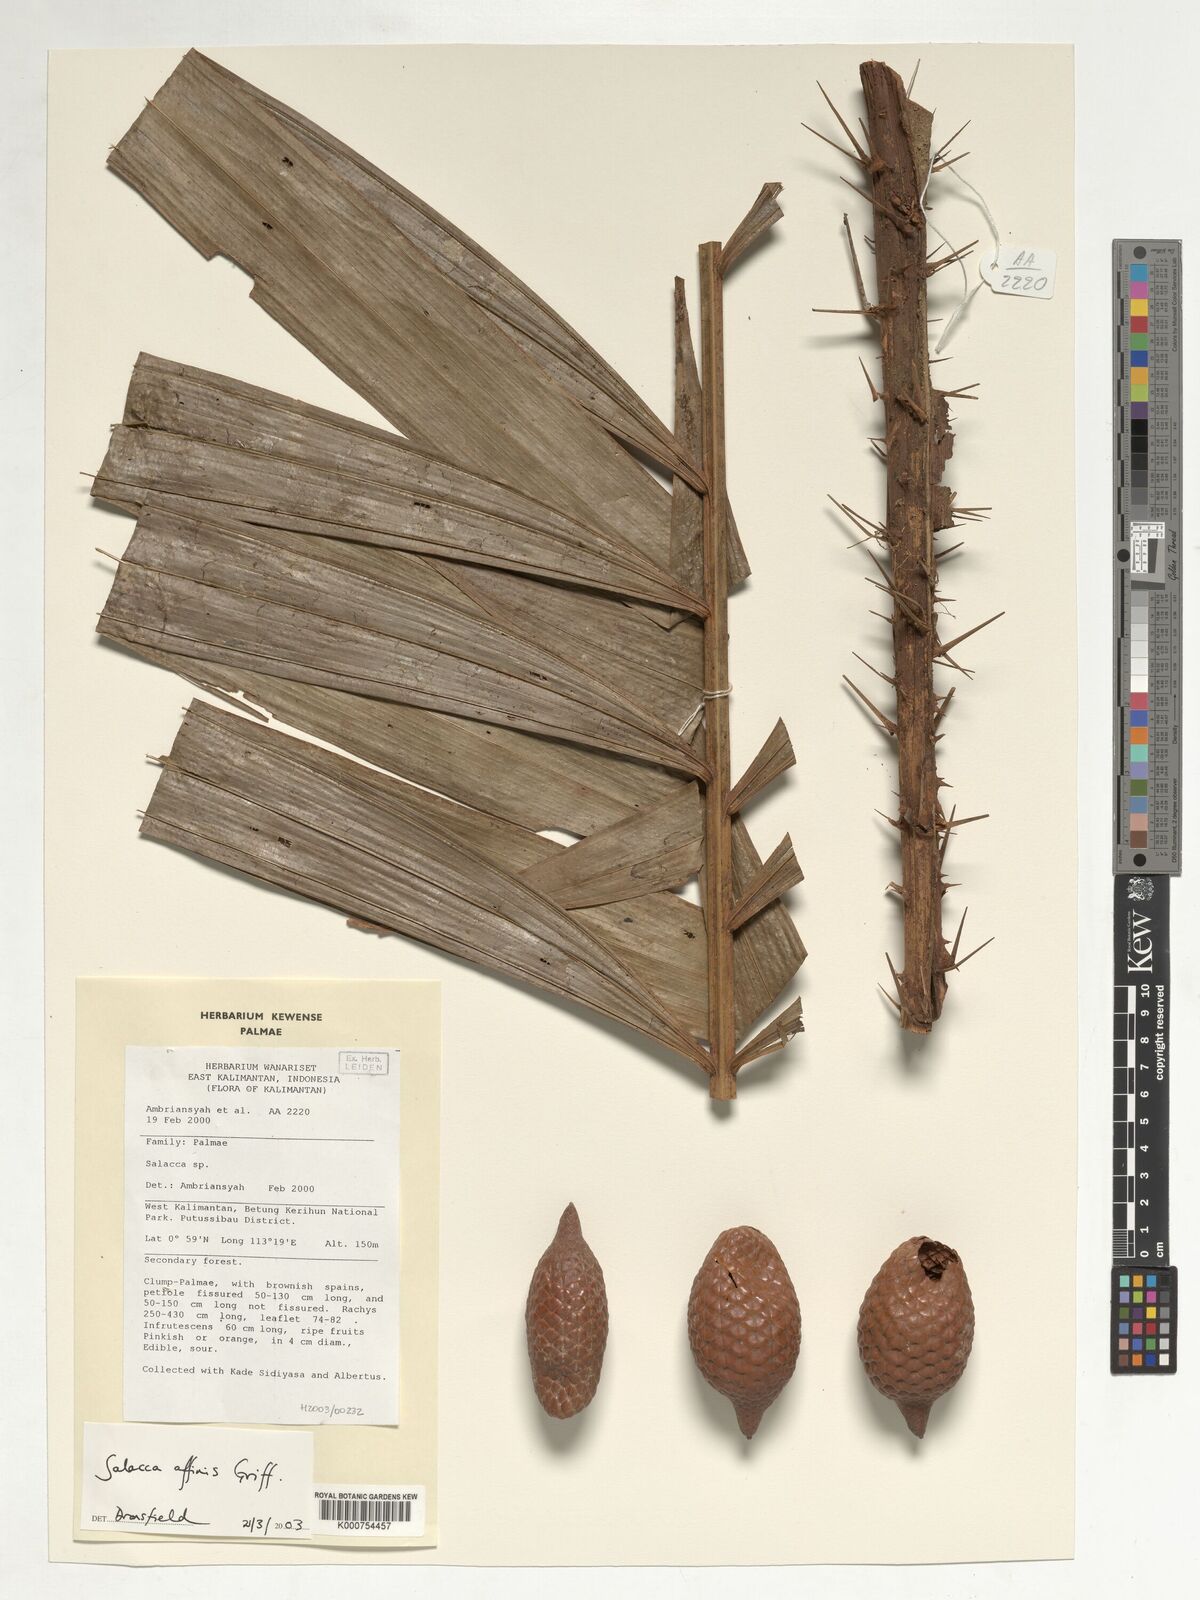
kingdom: Plantae
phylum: Tracheophyta
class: Liliopsida
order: Arecales
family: Arecaceae
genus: Salacca
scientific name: Salacca affinis
